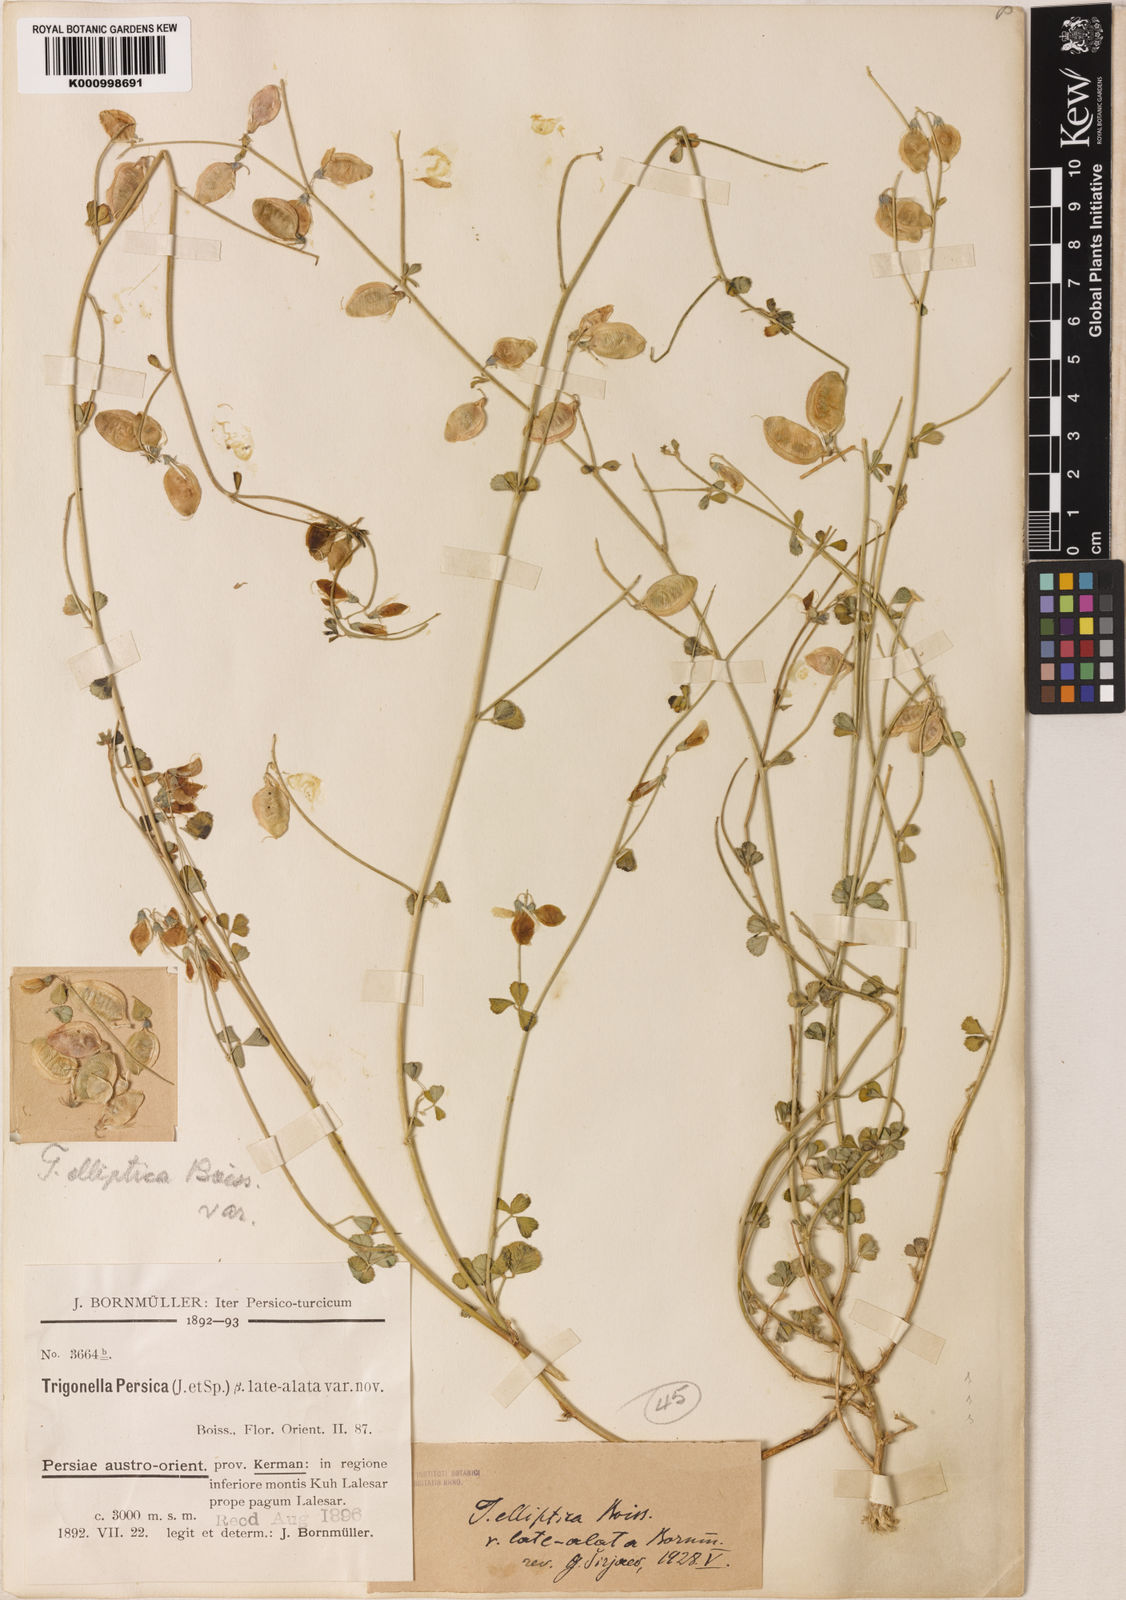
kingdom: Plantae
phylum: Tracheophyta
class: Magnoliopsida
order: Fabales
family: Fabaceae
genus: Trigonella
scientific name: Trigonella elliptica
